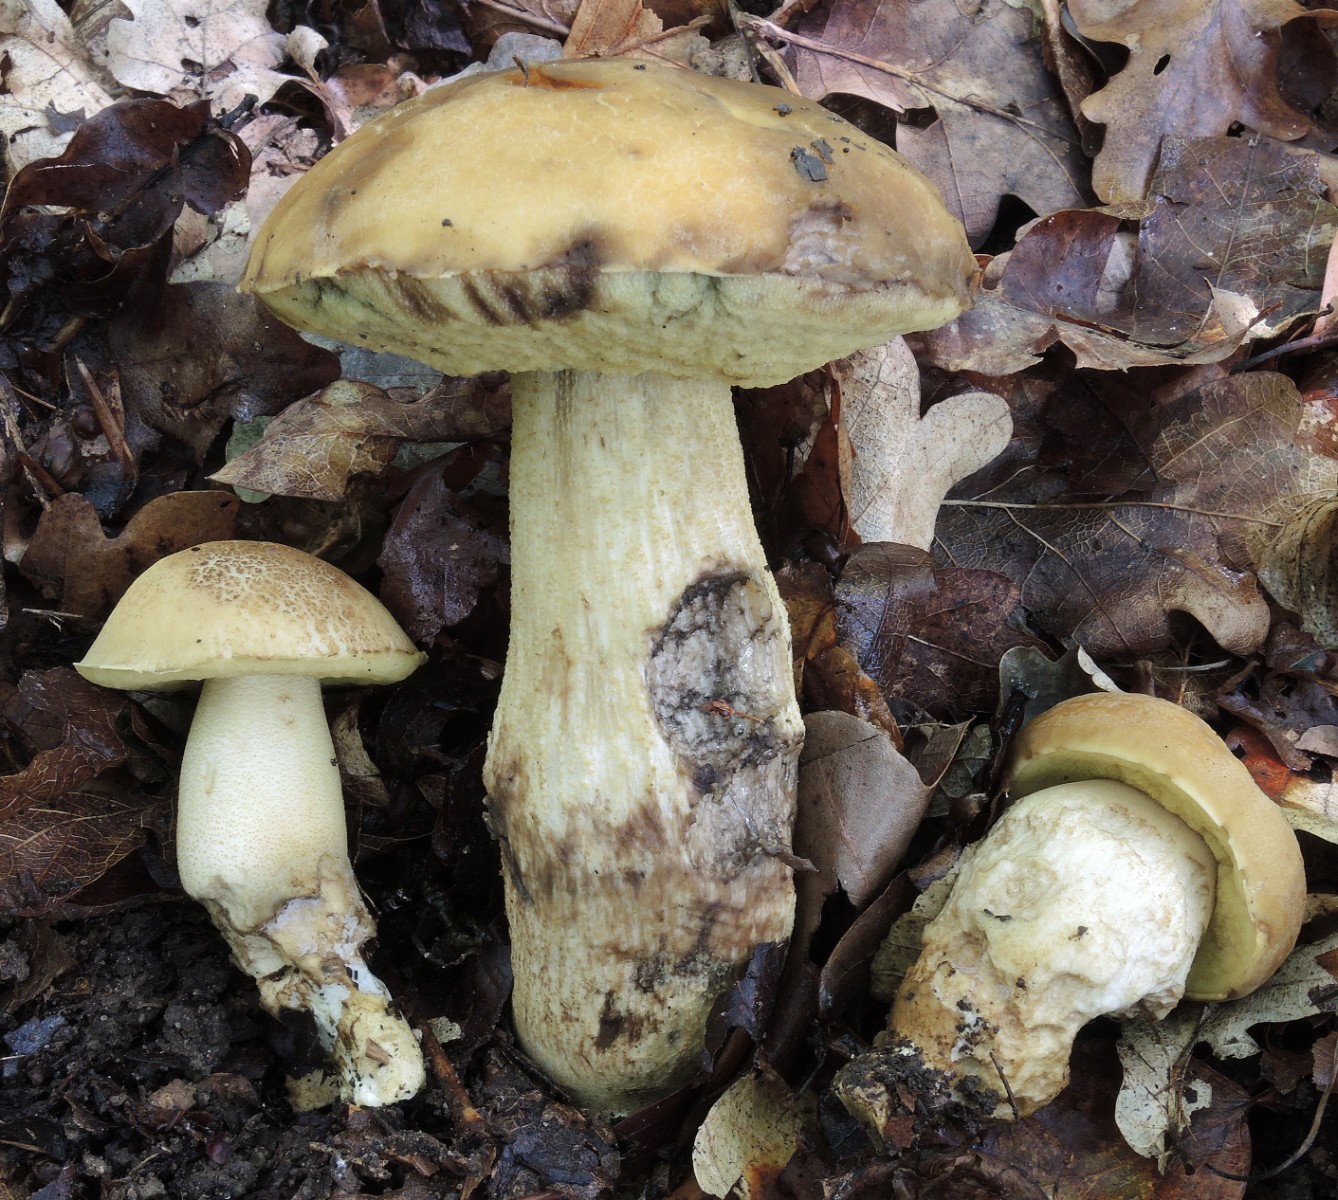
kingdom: Fungi
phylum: Basidiomycota
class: Agaricomycetes
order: Boletales
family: Boletaceae
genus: Leccinellum
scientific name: Leccinellum crocipodium
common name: gul skælrørhat
